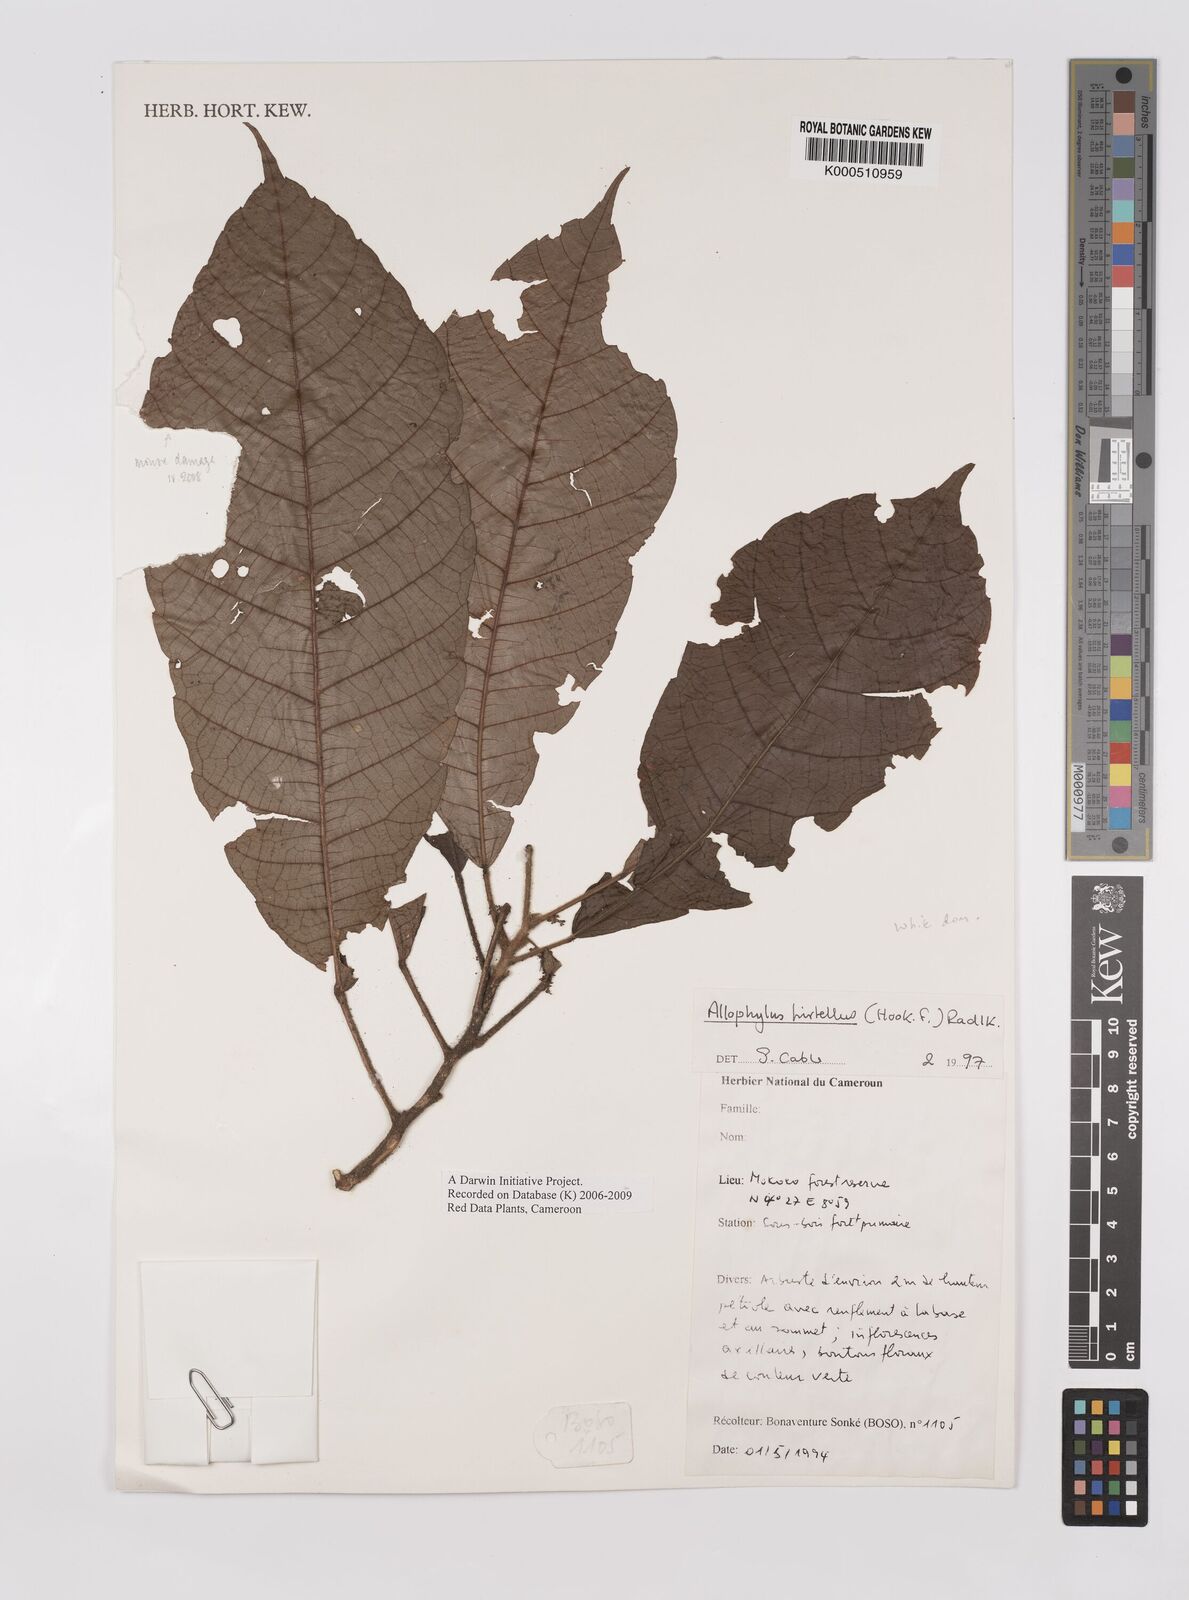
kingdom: Plantae
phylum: Tracheophyta
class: Magnoliopsida
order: Sapindales
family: Sapindaceae
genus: Allophylus
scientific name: Allophylus hirtellus
